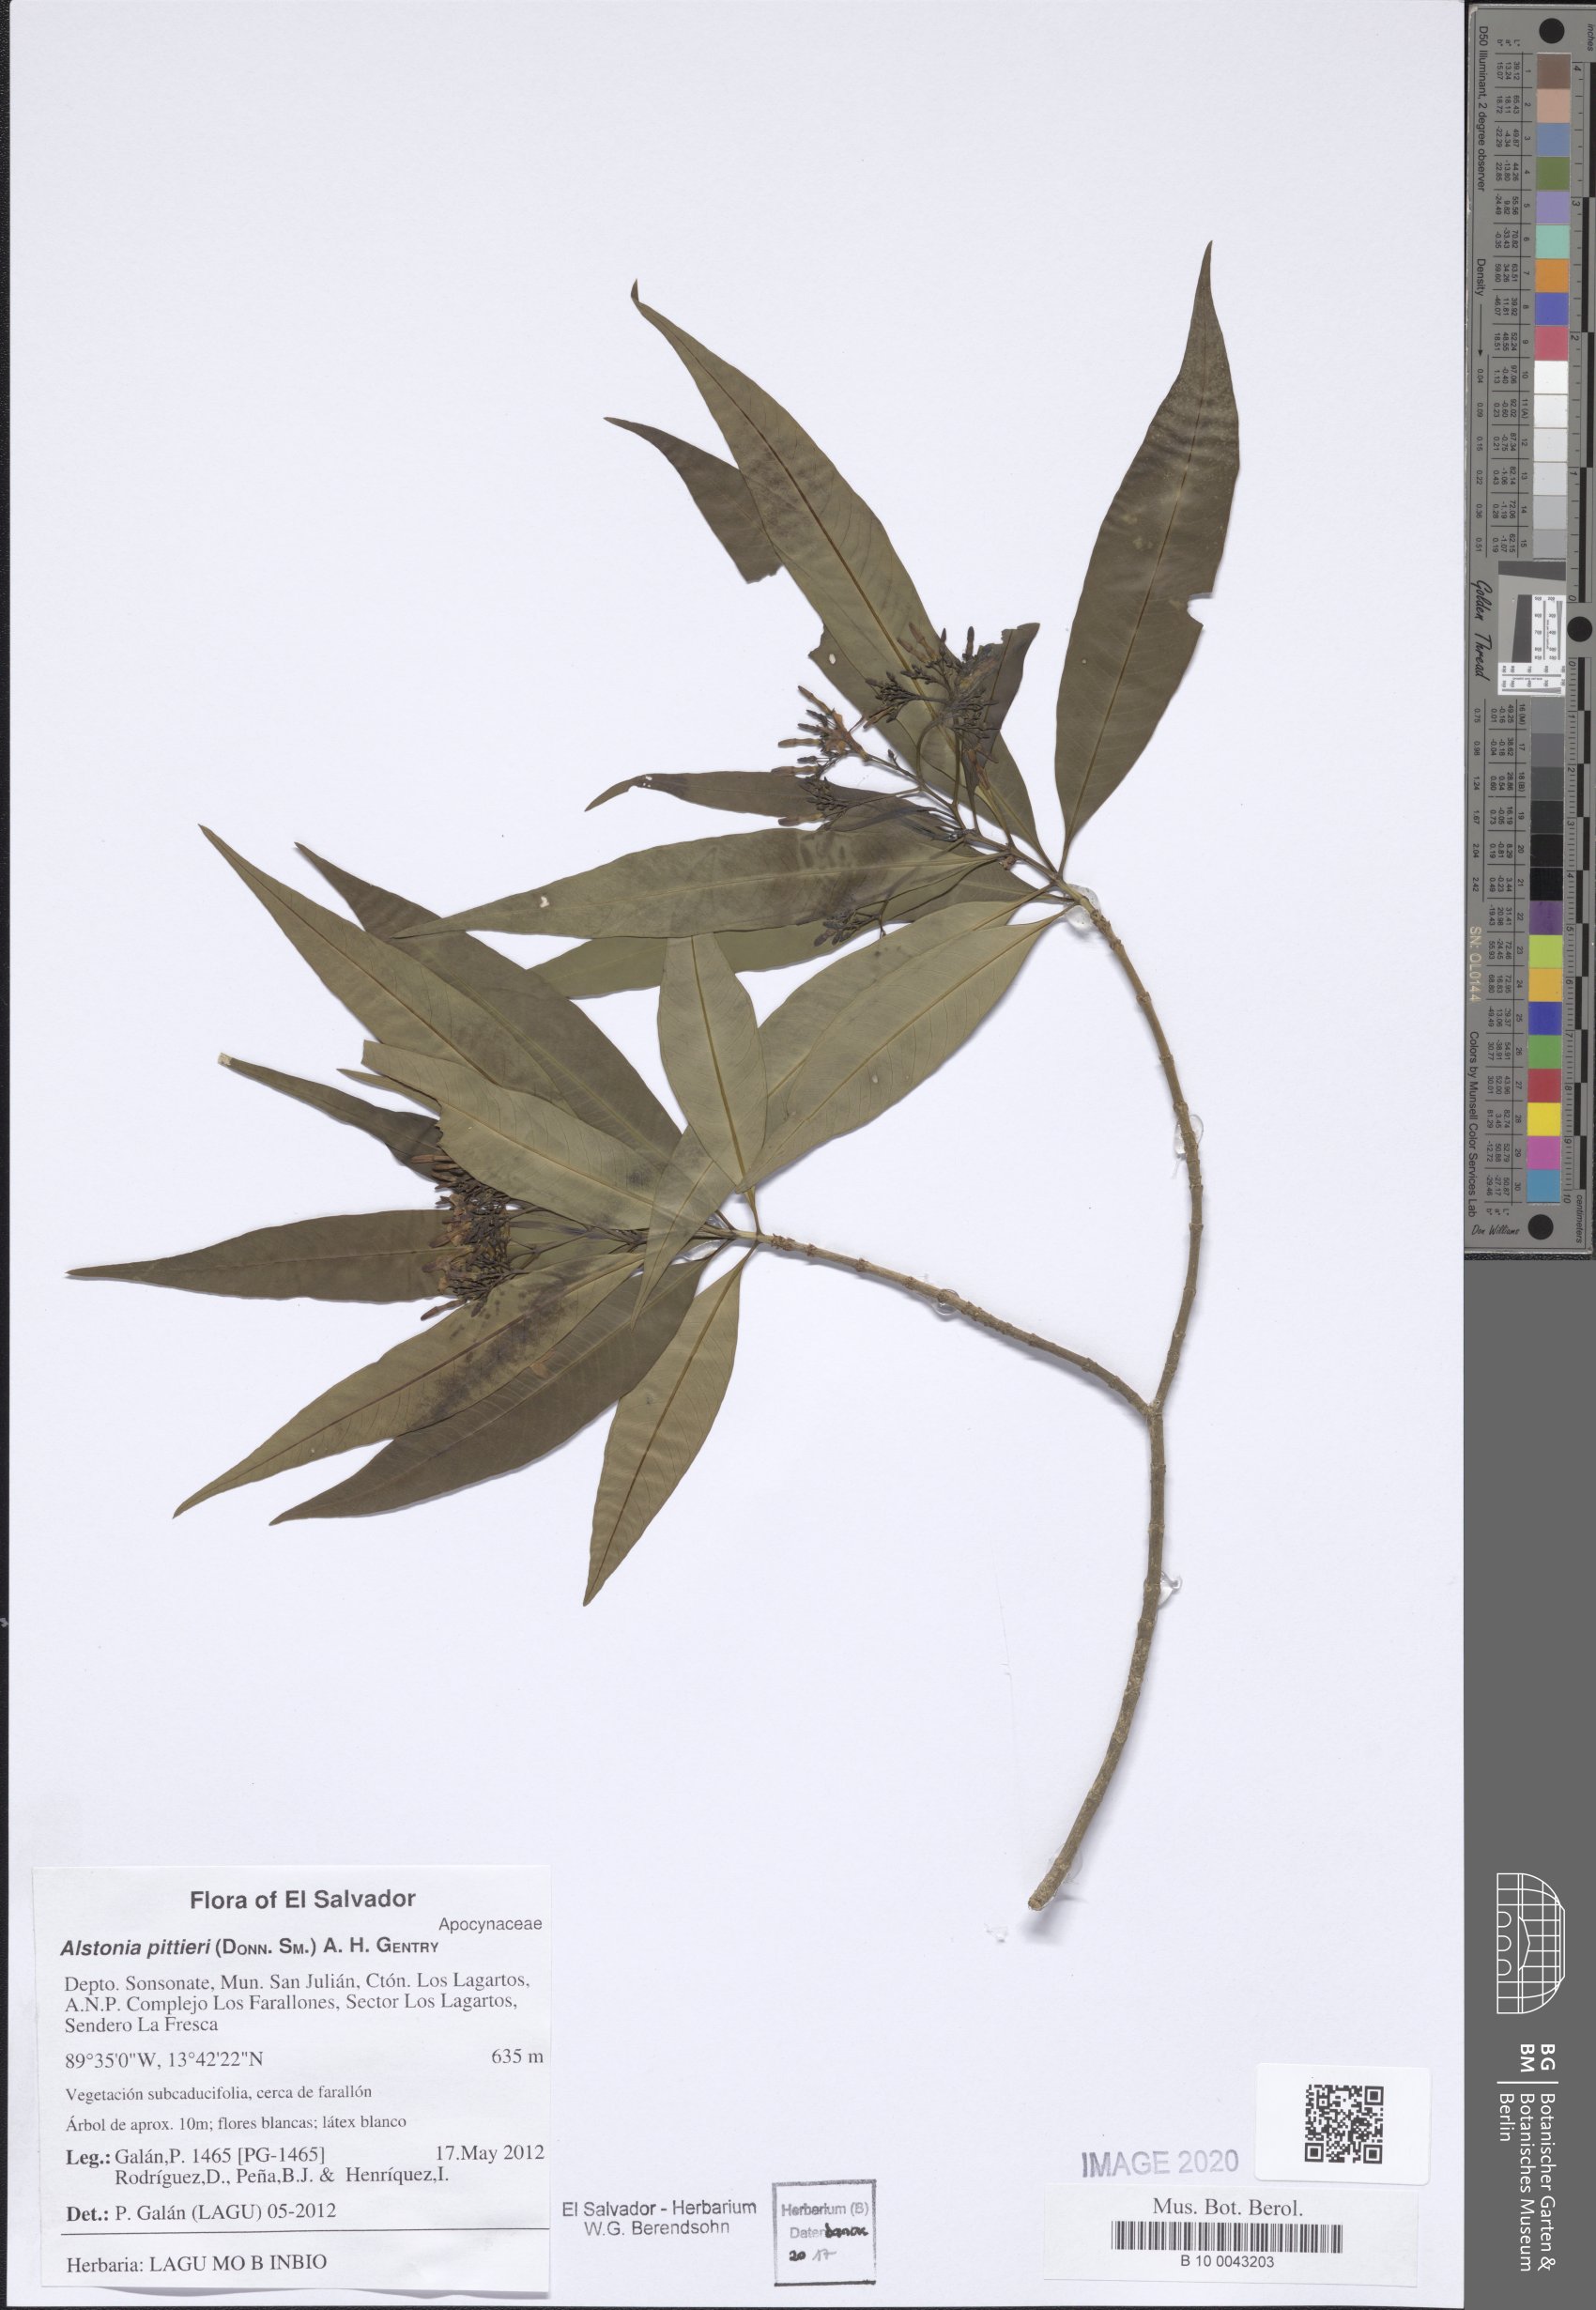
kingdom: Plantae
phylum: Tracheophyta
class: Magnoliopsida
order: Gentianales
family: Apocynaceae
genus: Tonduzia
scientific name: Tonduzia longifolia
